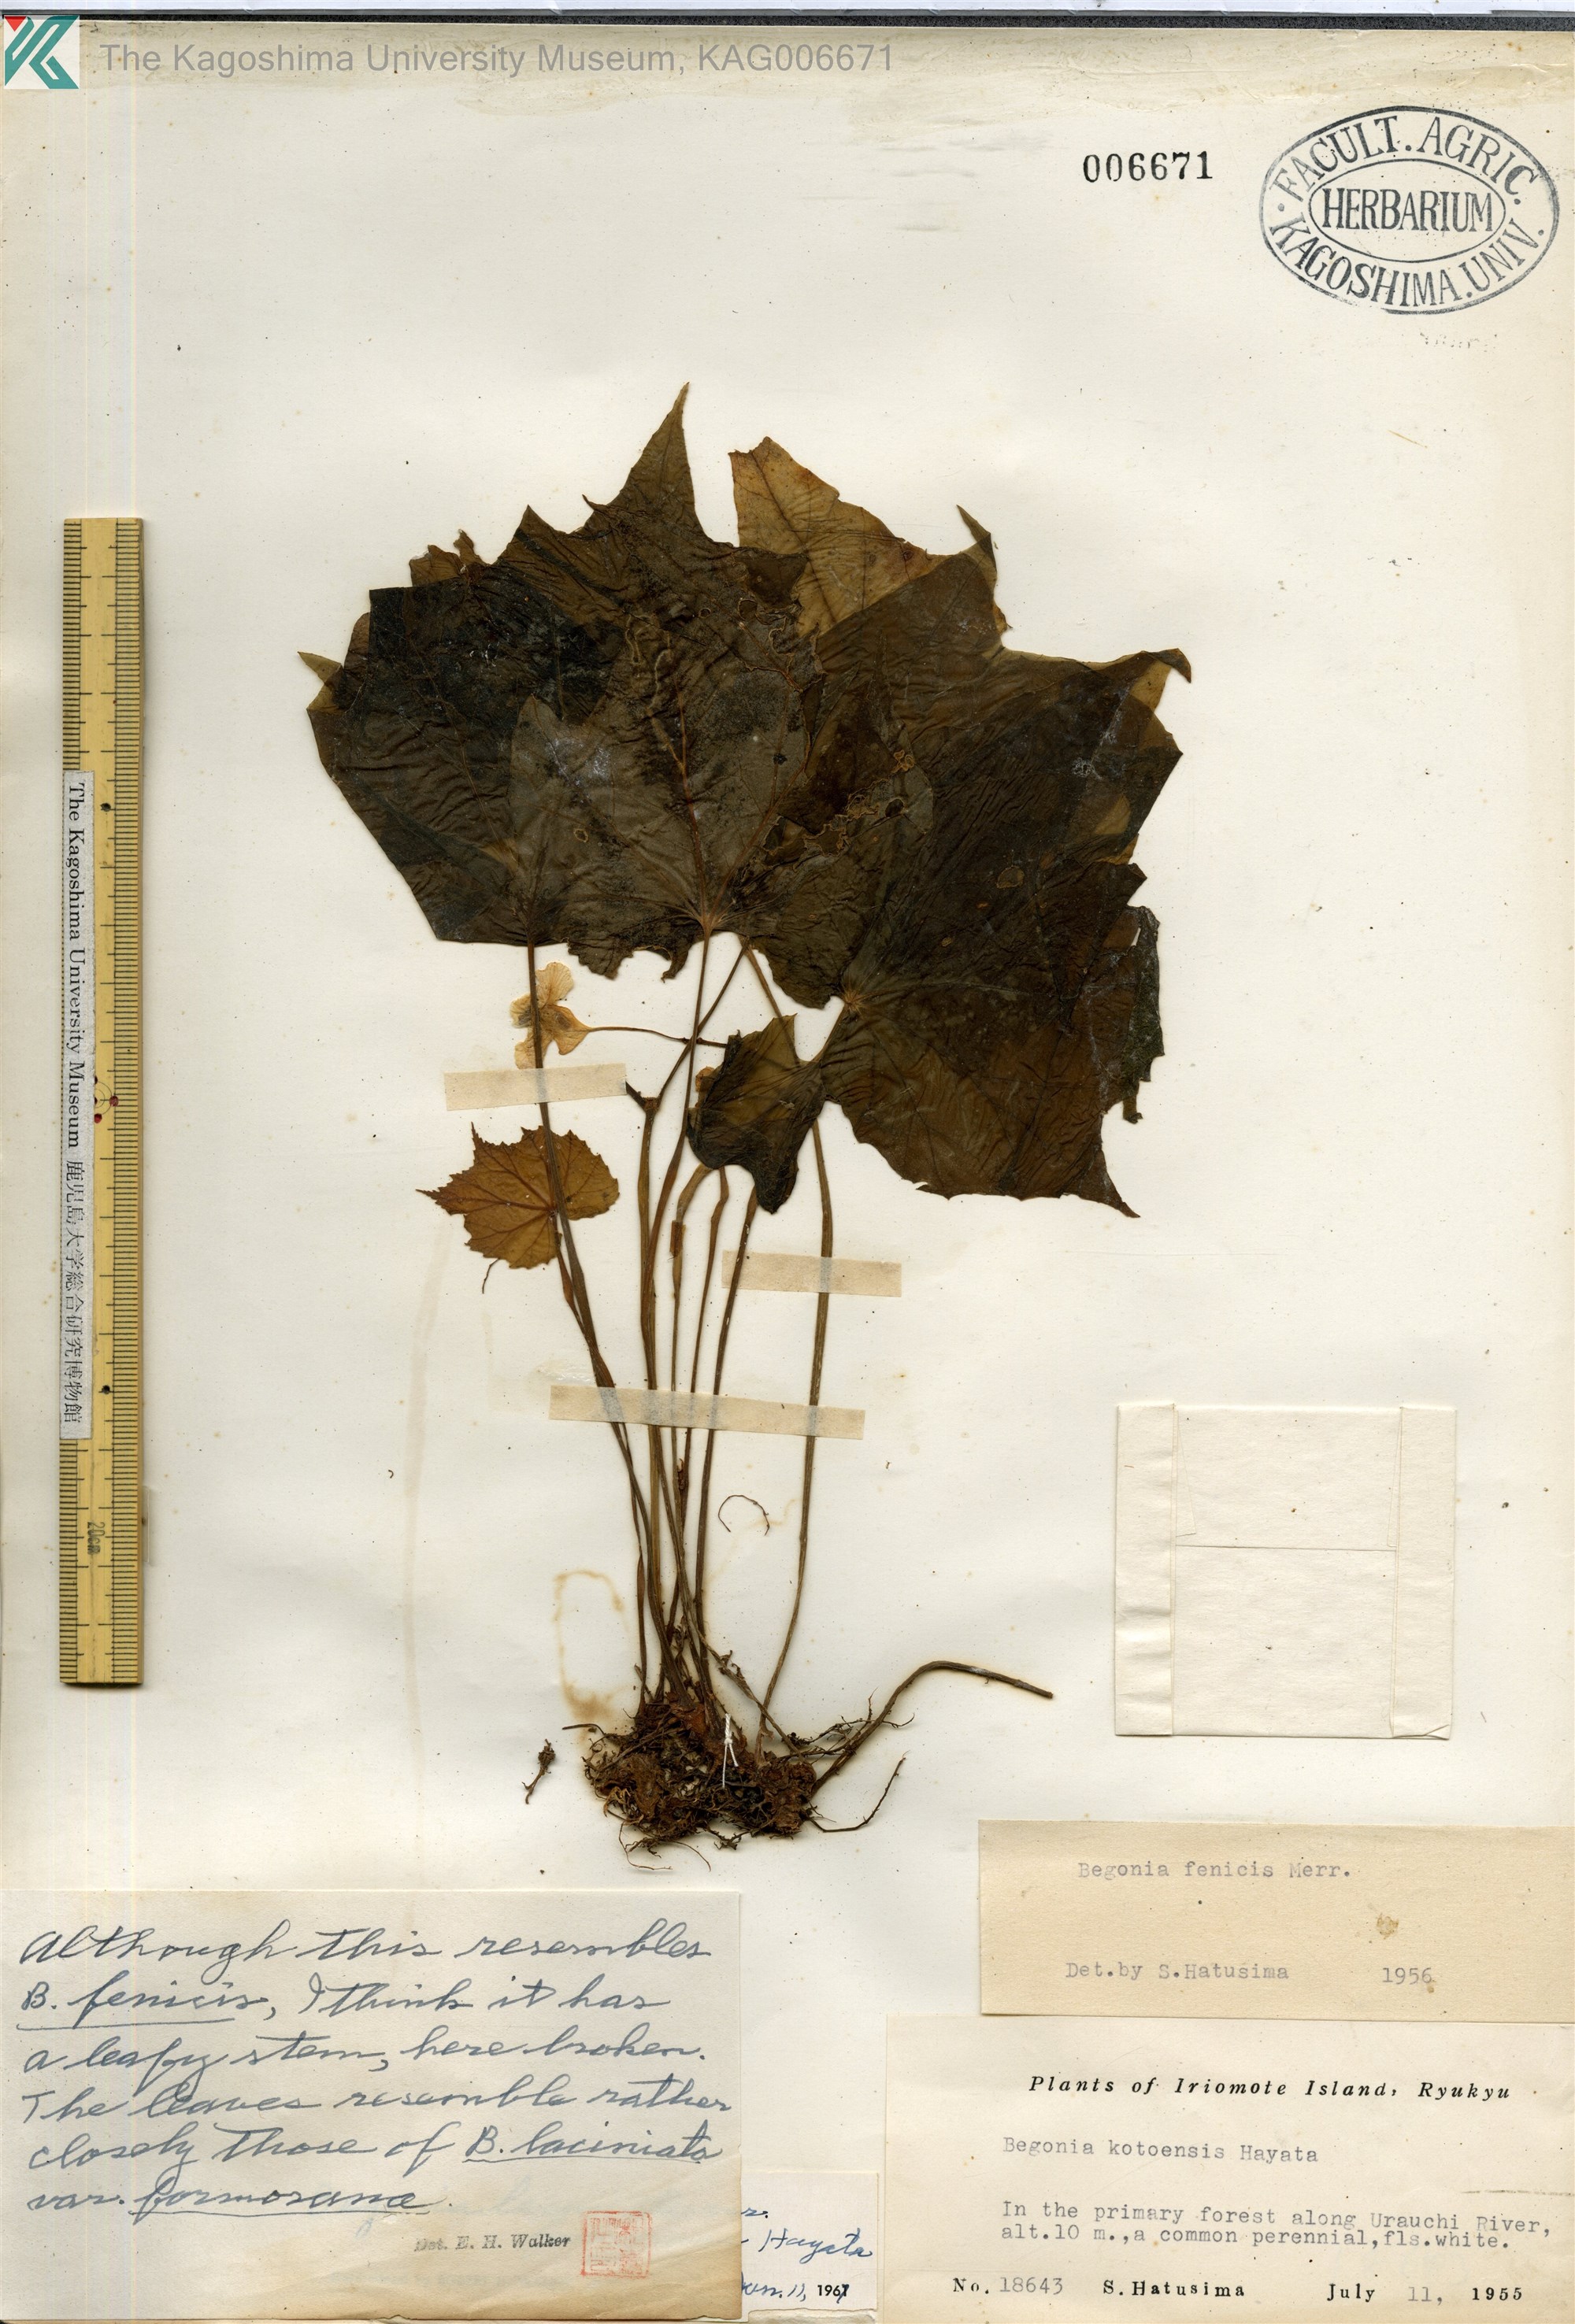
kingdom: Plantae
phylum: Tracheophyta
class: Magnoliopsida
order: Cucurbitales
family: Begoniaceae
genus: Begonia
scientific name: Begonia palmata
